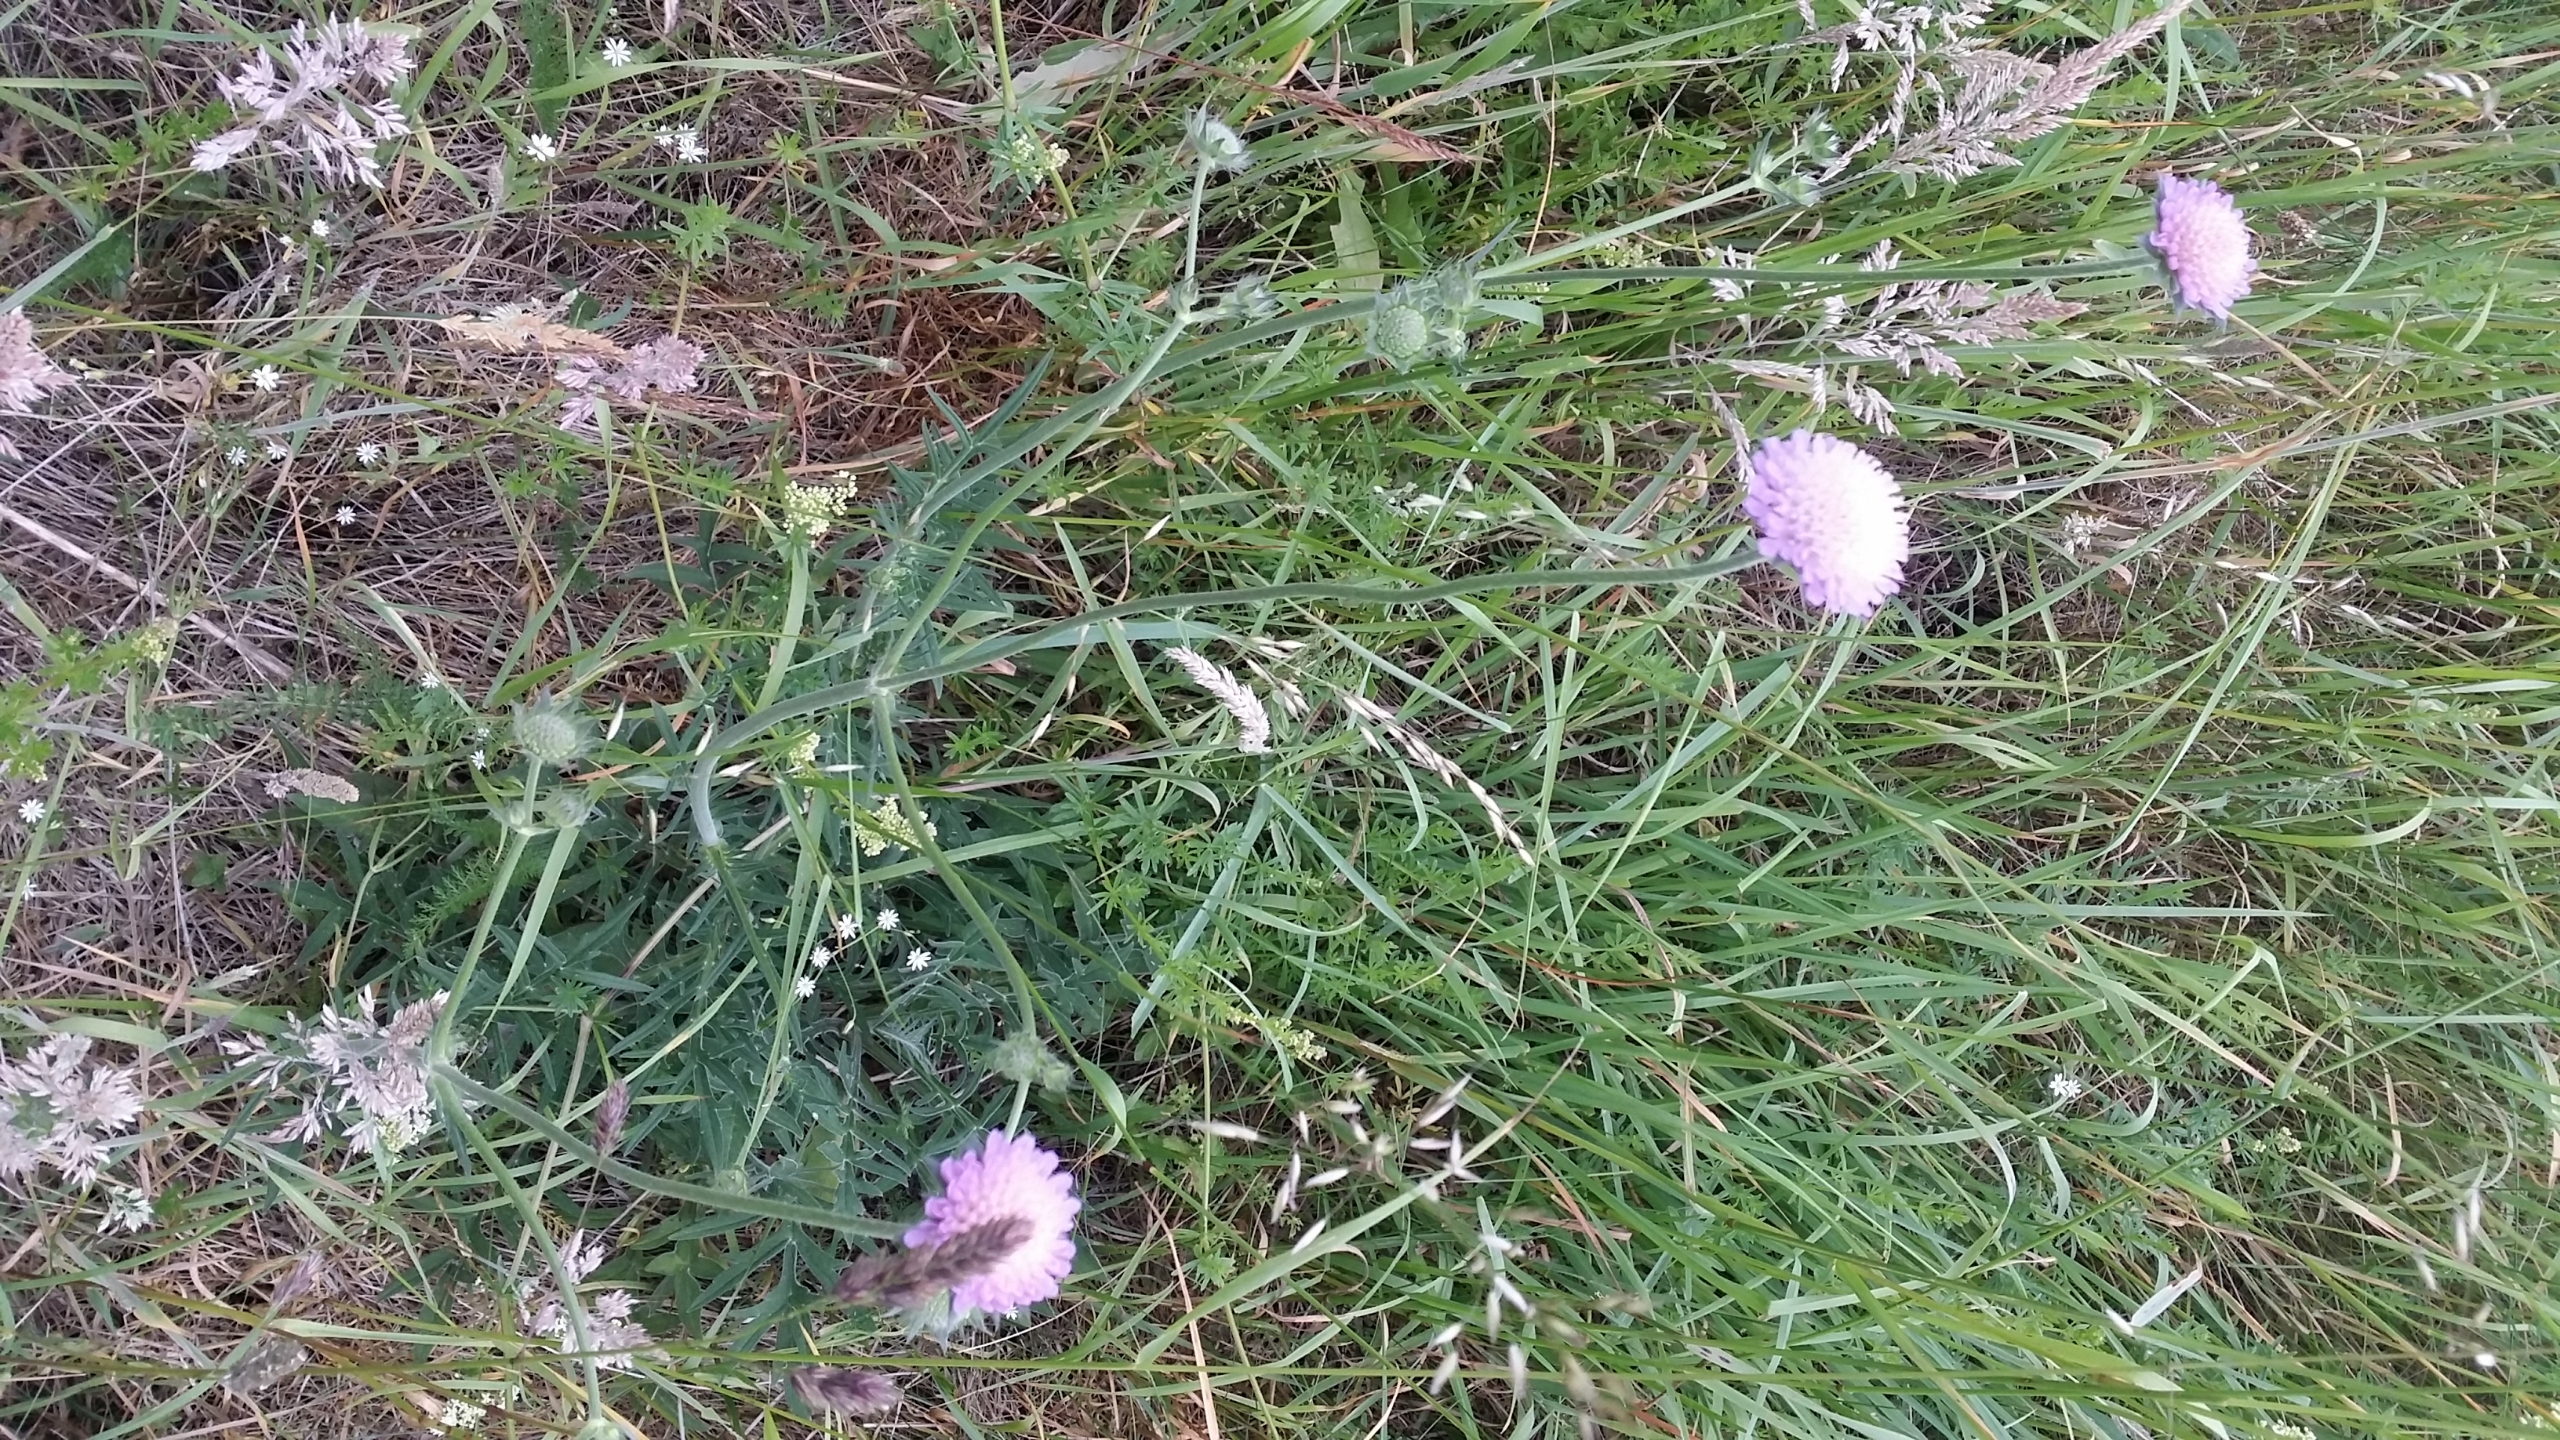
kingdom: Plantae
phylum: Tracheophyta
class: Magnoliopsida
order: Dipsacales
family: Caprifoliaceae
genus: Knautia
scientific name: Knautia arvensis
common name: Blåhat
